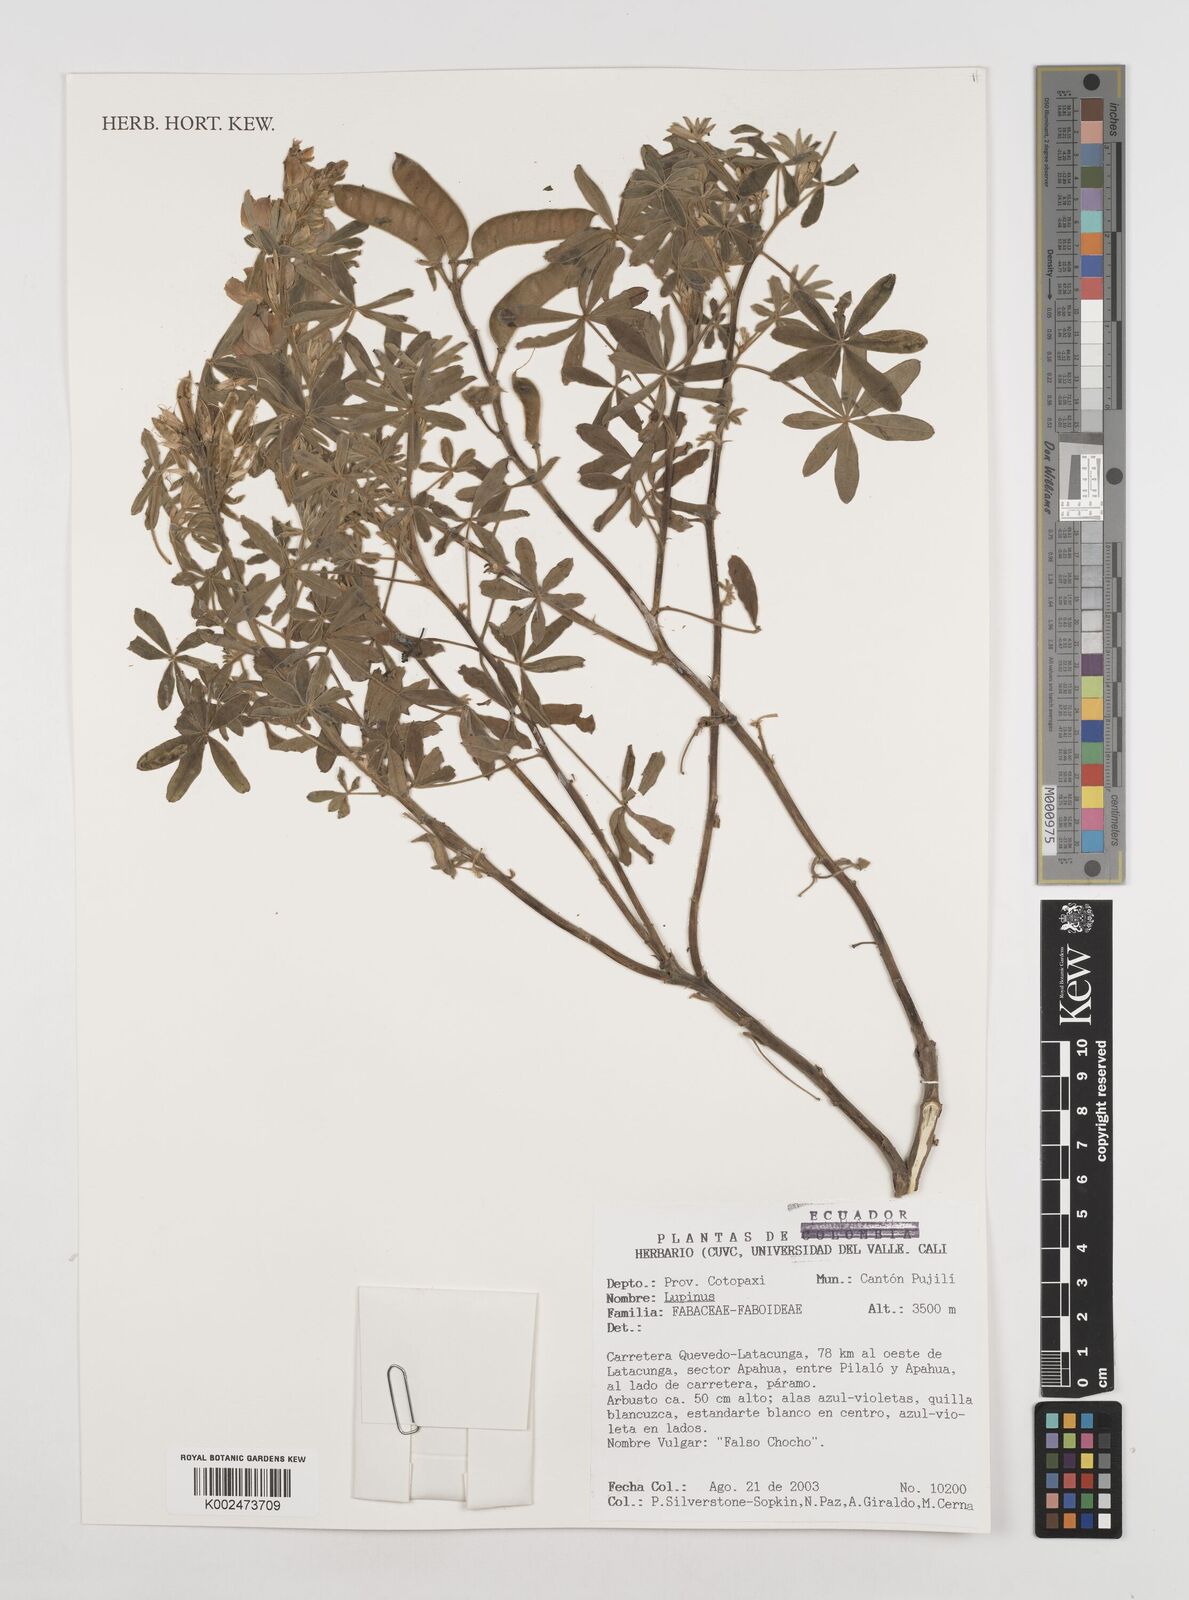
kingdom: Plantae
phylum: Tracheophyta
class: Magnoliopsida
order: Fabales
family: Fabaceae
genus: Lupinus
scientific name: Lupinus
